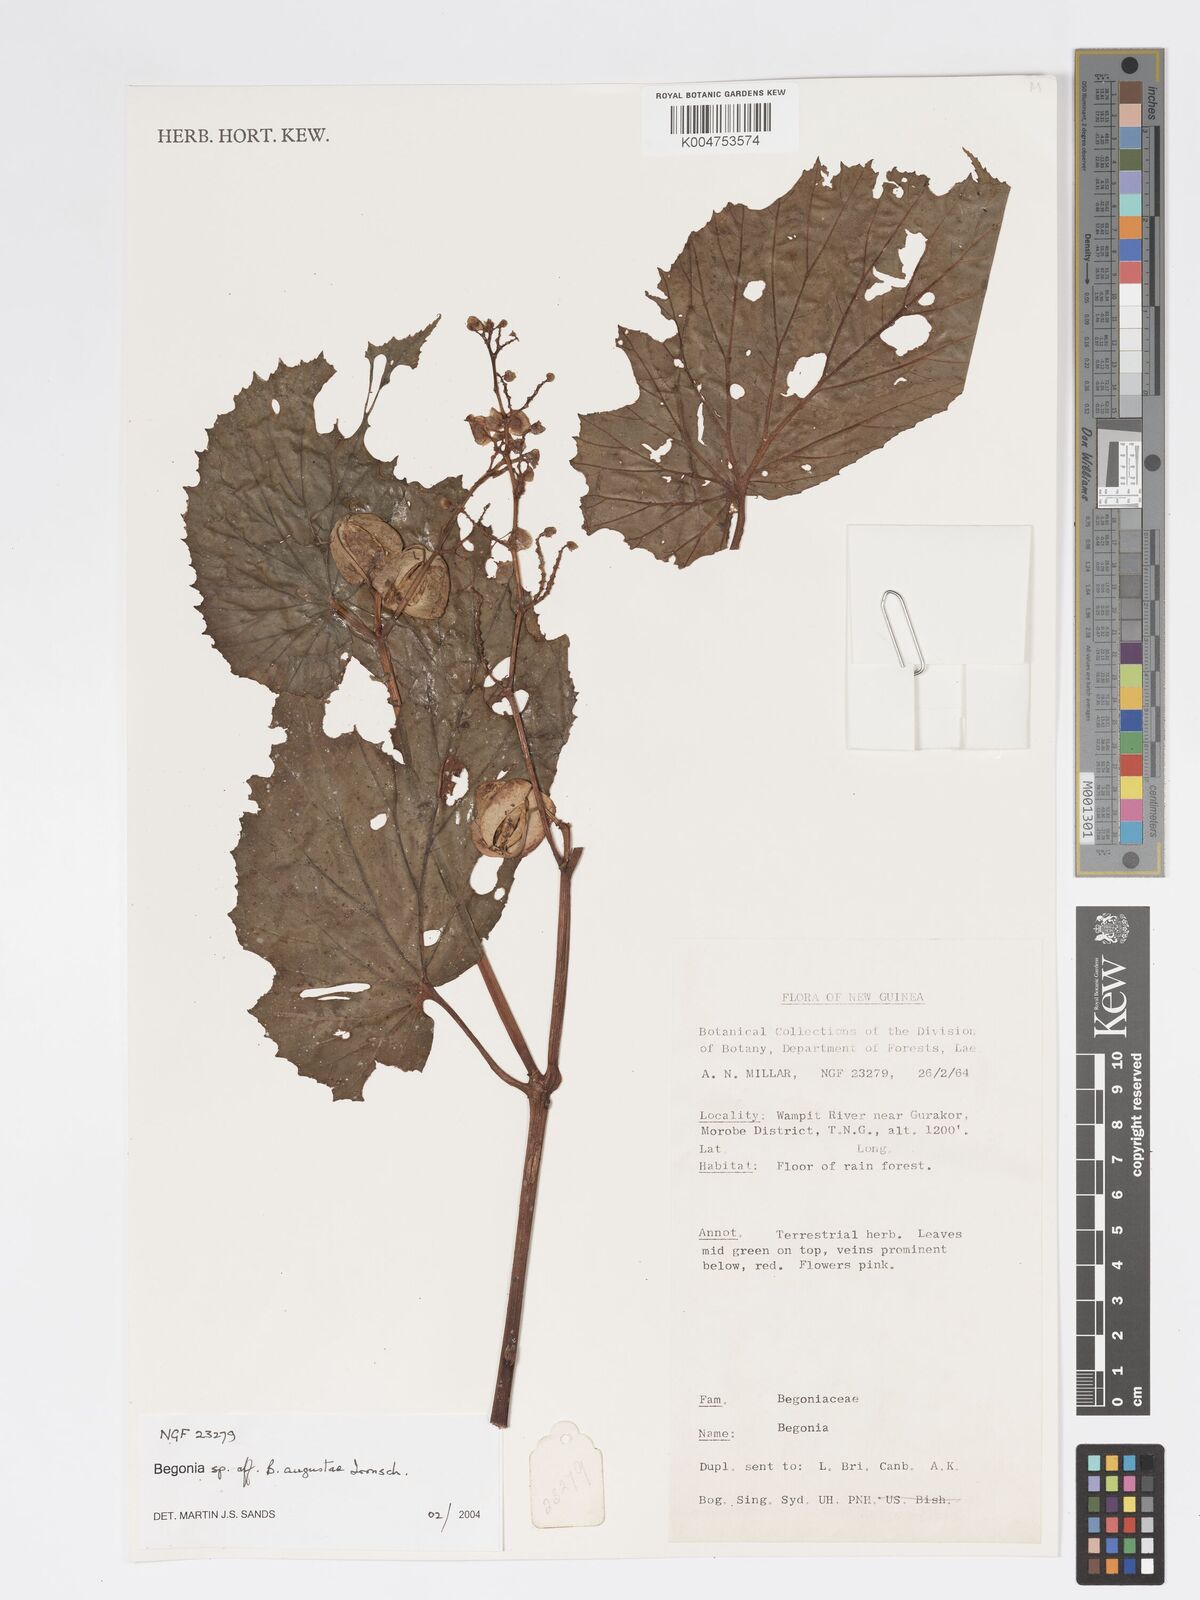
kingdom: Plantae
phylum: Tracheophyta
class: Magnoliopsida
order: Cucurbitales
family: Begoniaceae
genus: Begonia
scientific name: Begonia augustae
